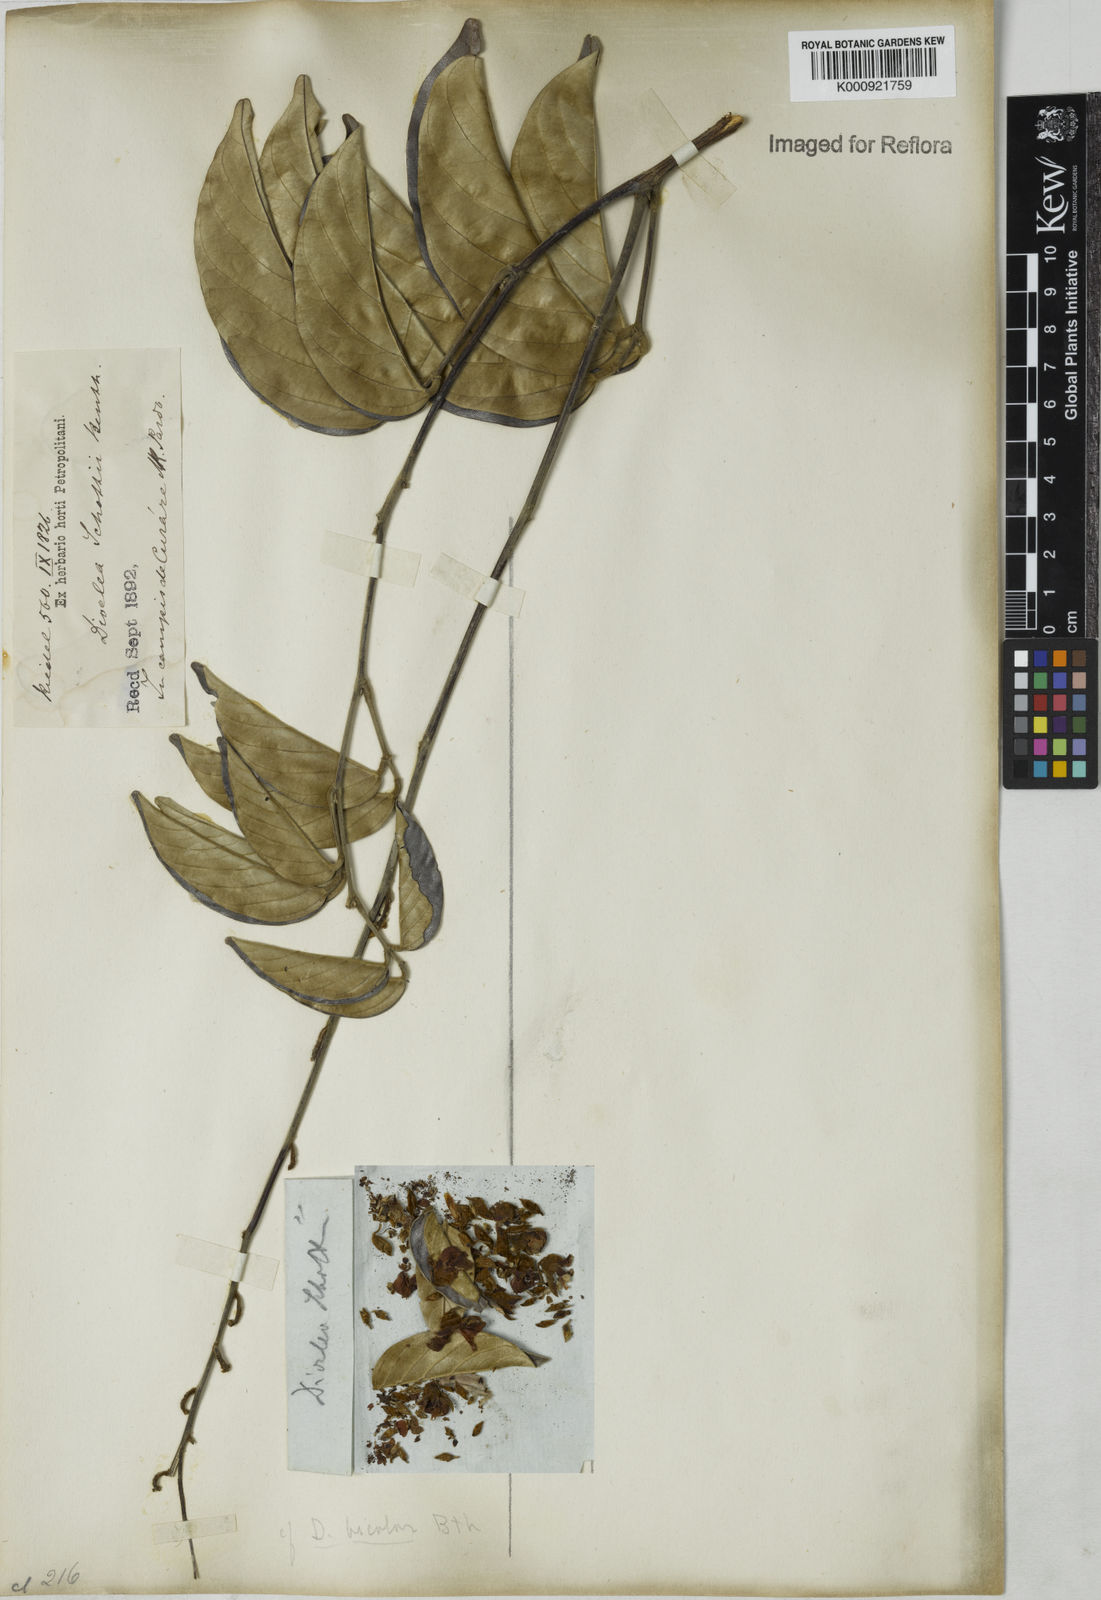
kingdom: Plantae
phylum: Tracheophyta
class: Magnoliopsida
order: Fabales
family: Fabaceae
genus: Macropsychanthus
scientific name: Macropsychanthus schottii
